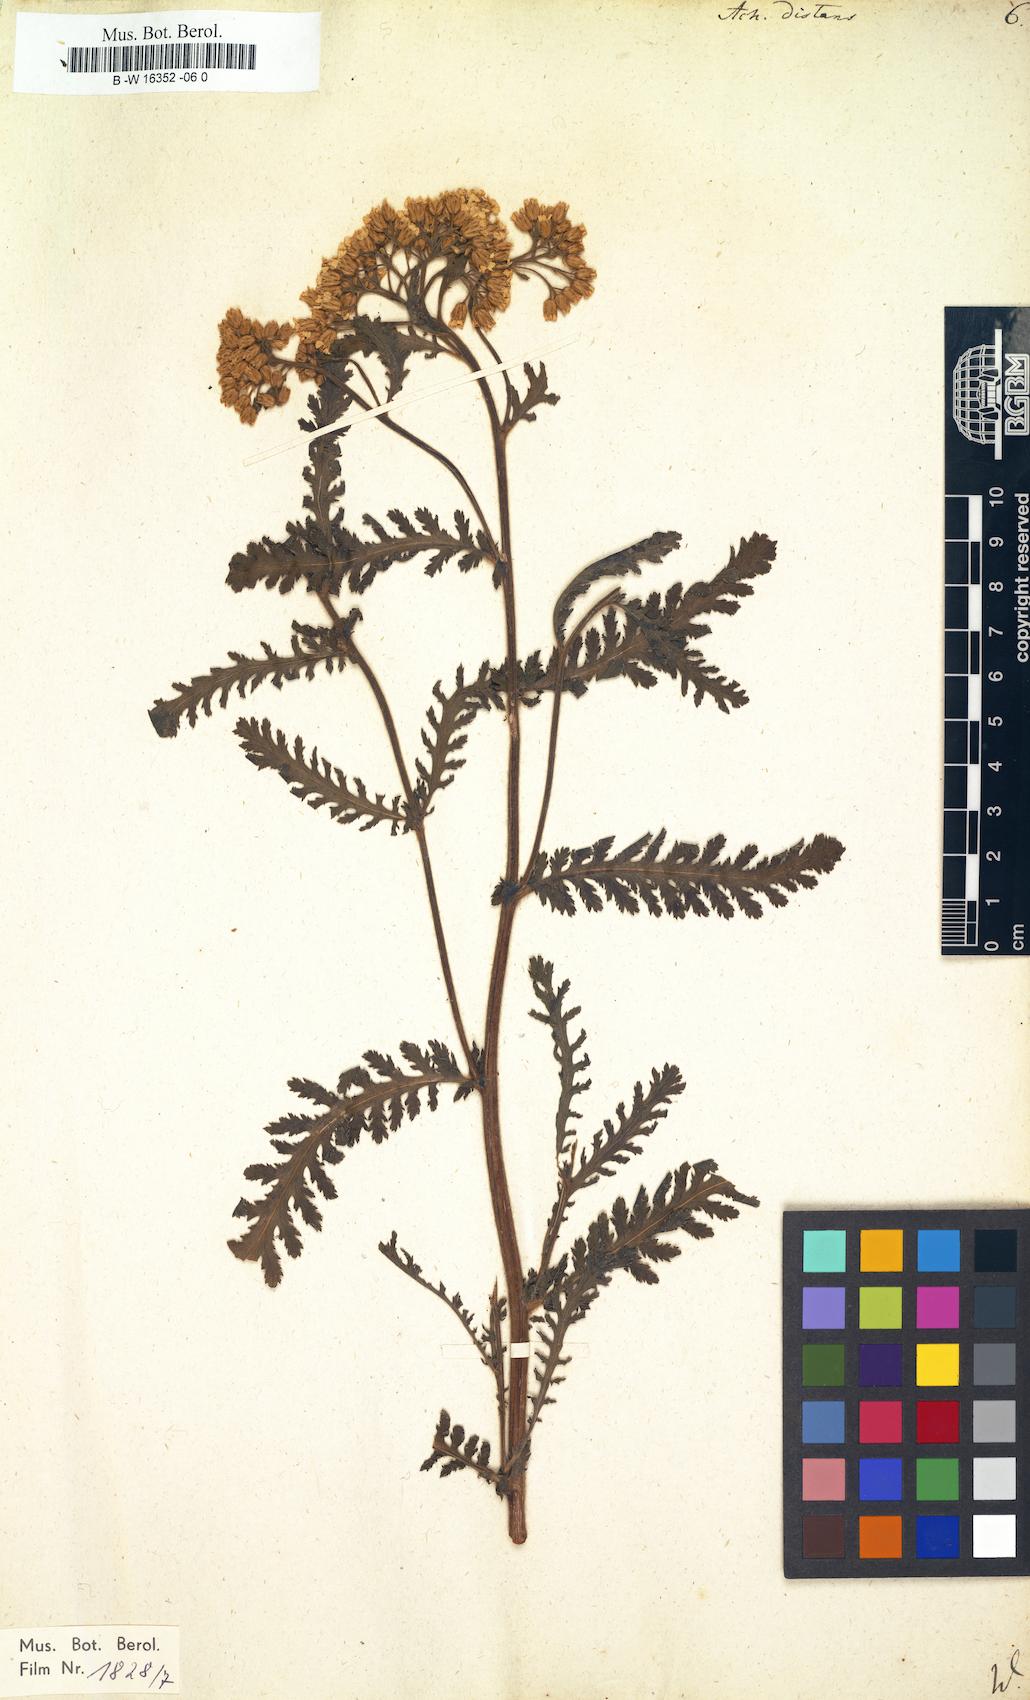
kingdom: Plantae
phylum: Tracheophyta
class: Magnoliopsida
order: Asterales
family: Asteraceae
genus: Achillea
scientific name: Achillea distans
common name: Tall yarrow
